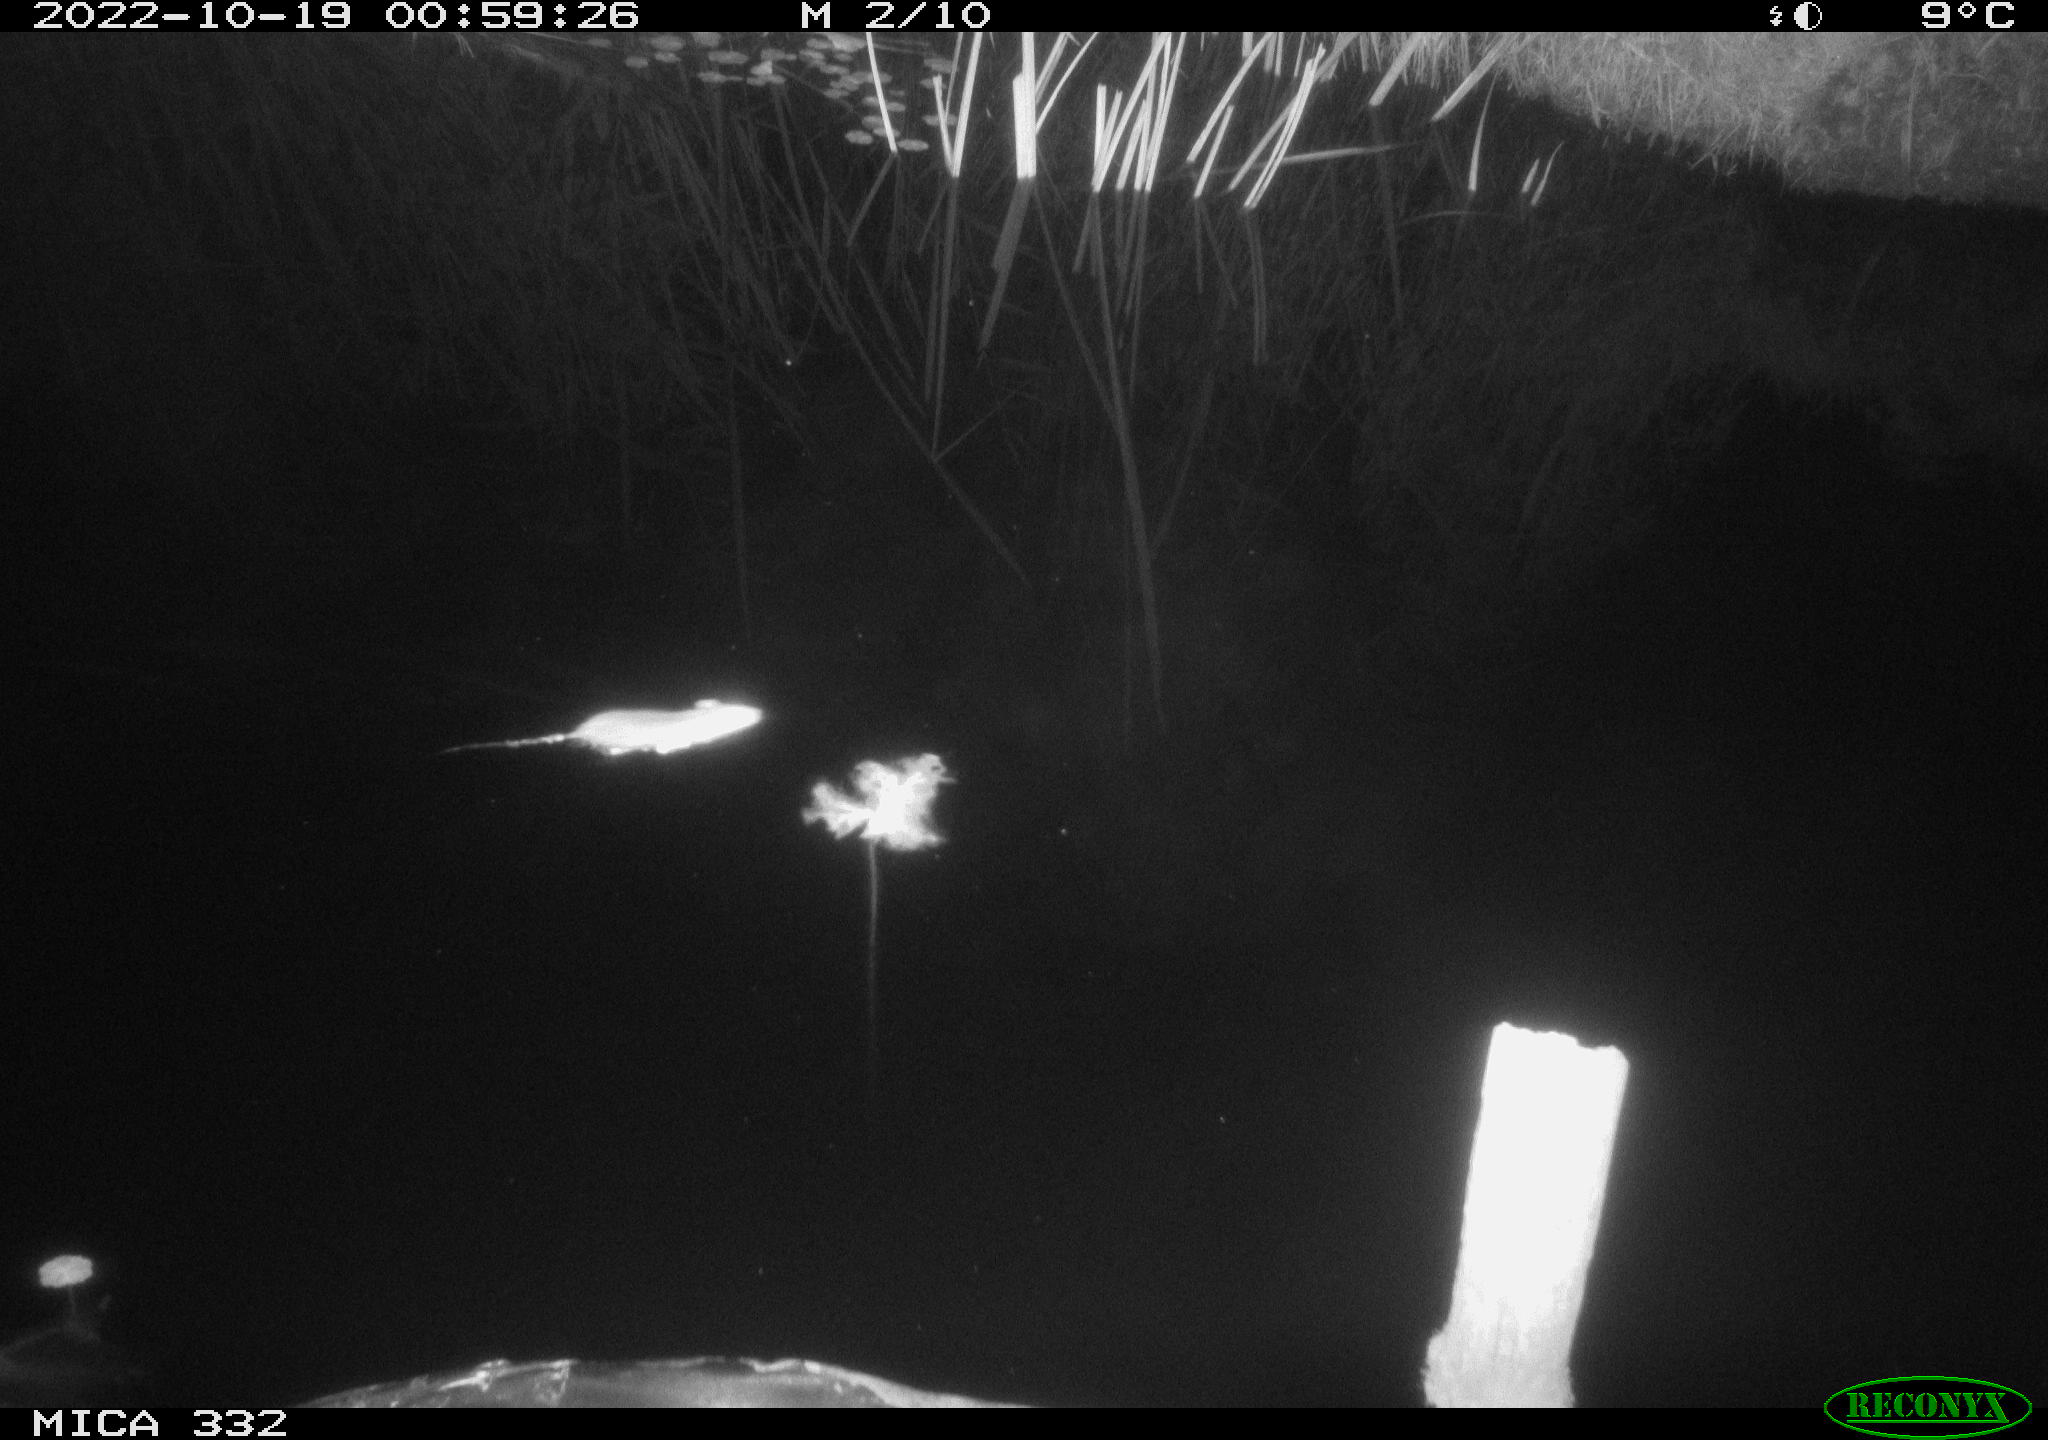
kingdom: Animalia
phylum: Chordata
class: Mammalia
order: Rodentia
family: Muridae
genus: Rattus
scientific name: Rattus norvegicus
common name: Brown rat
